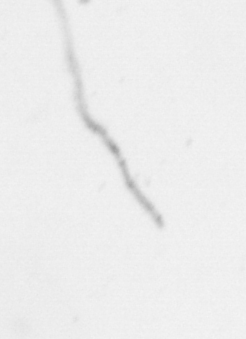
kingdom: Chromista
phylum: Ochrophyta
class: Bacillariophyceae
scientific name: Bacillariophyceae
